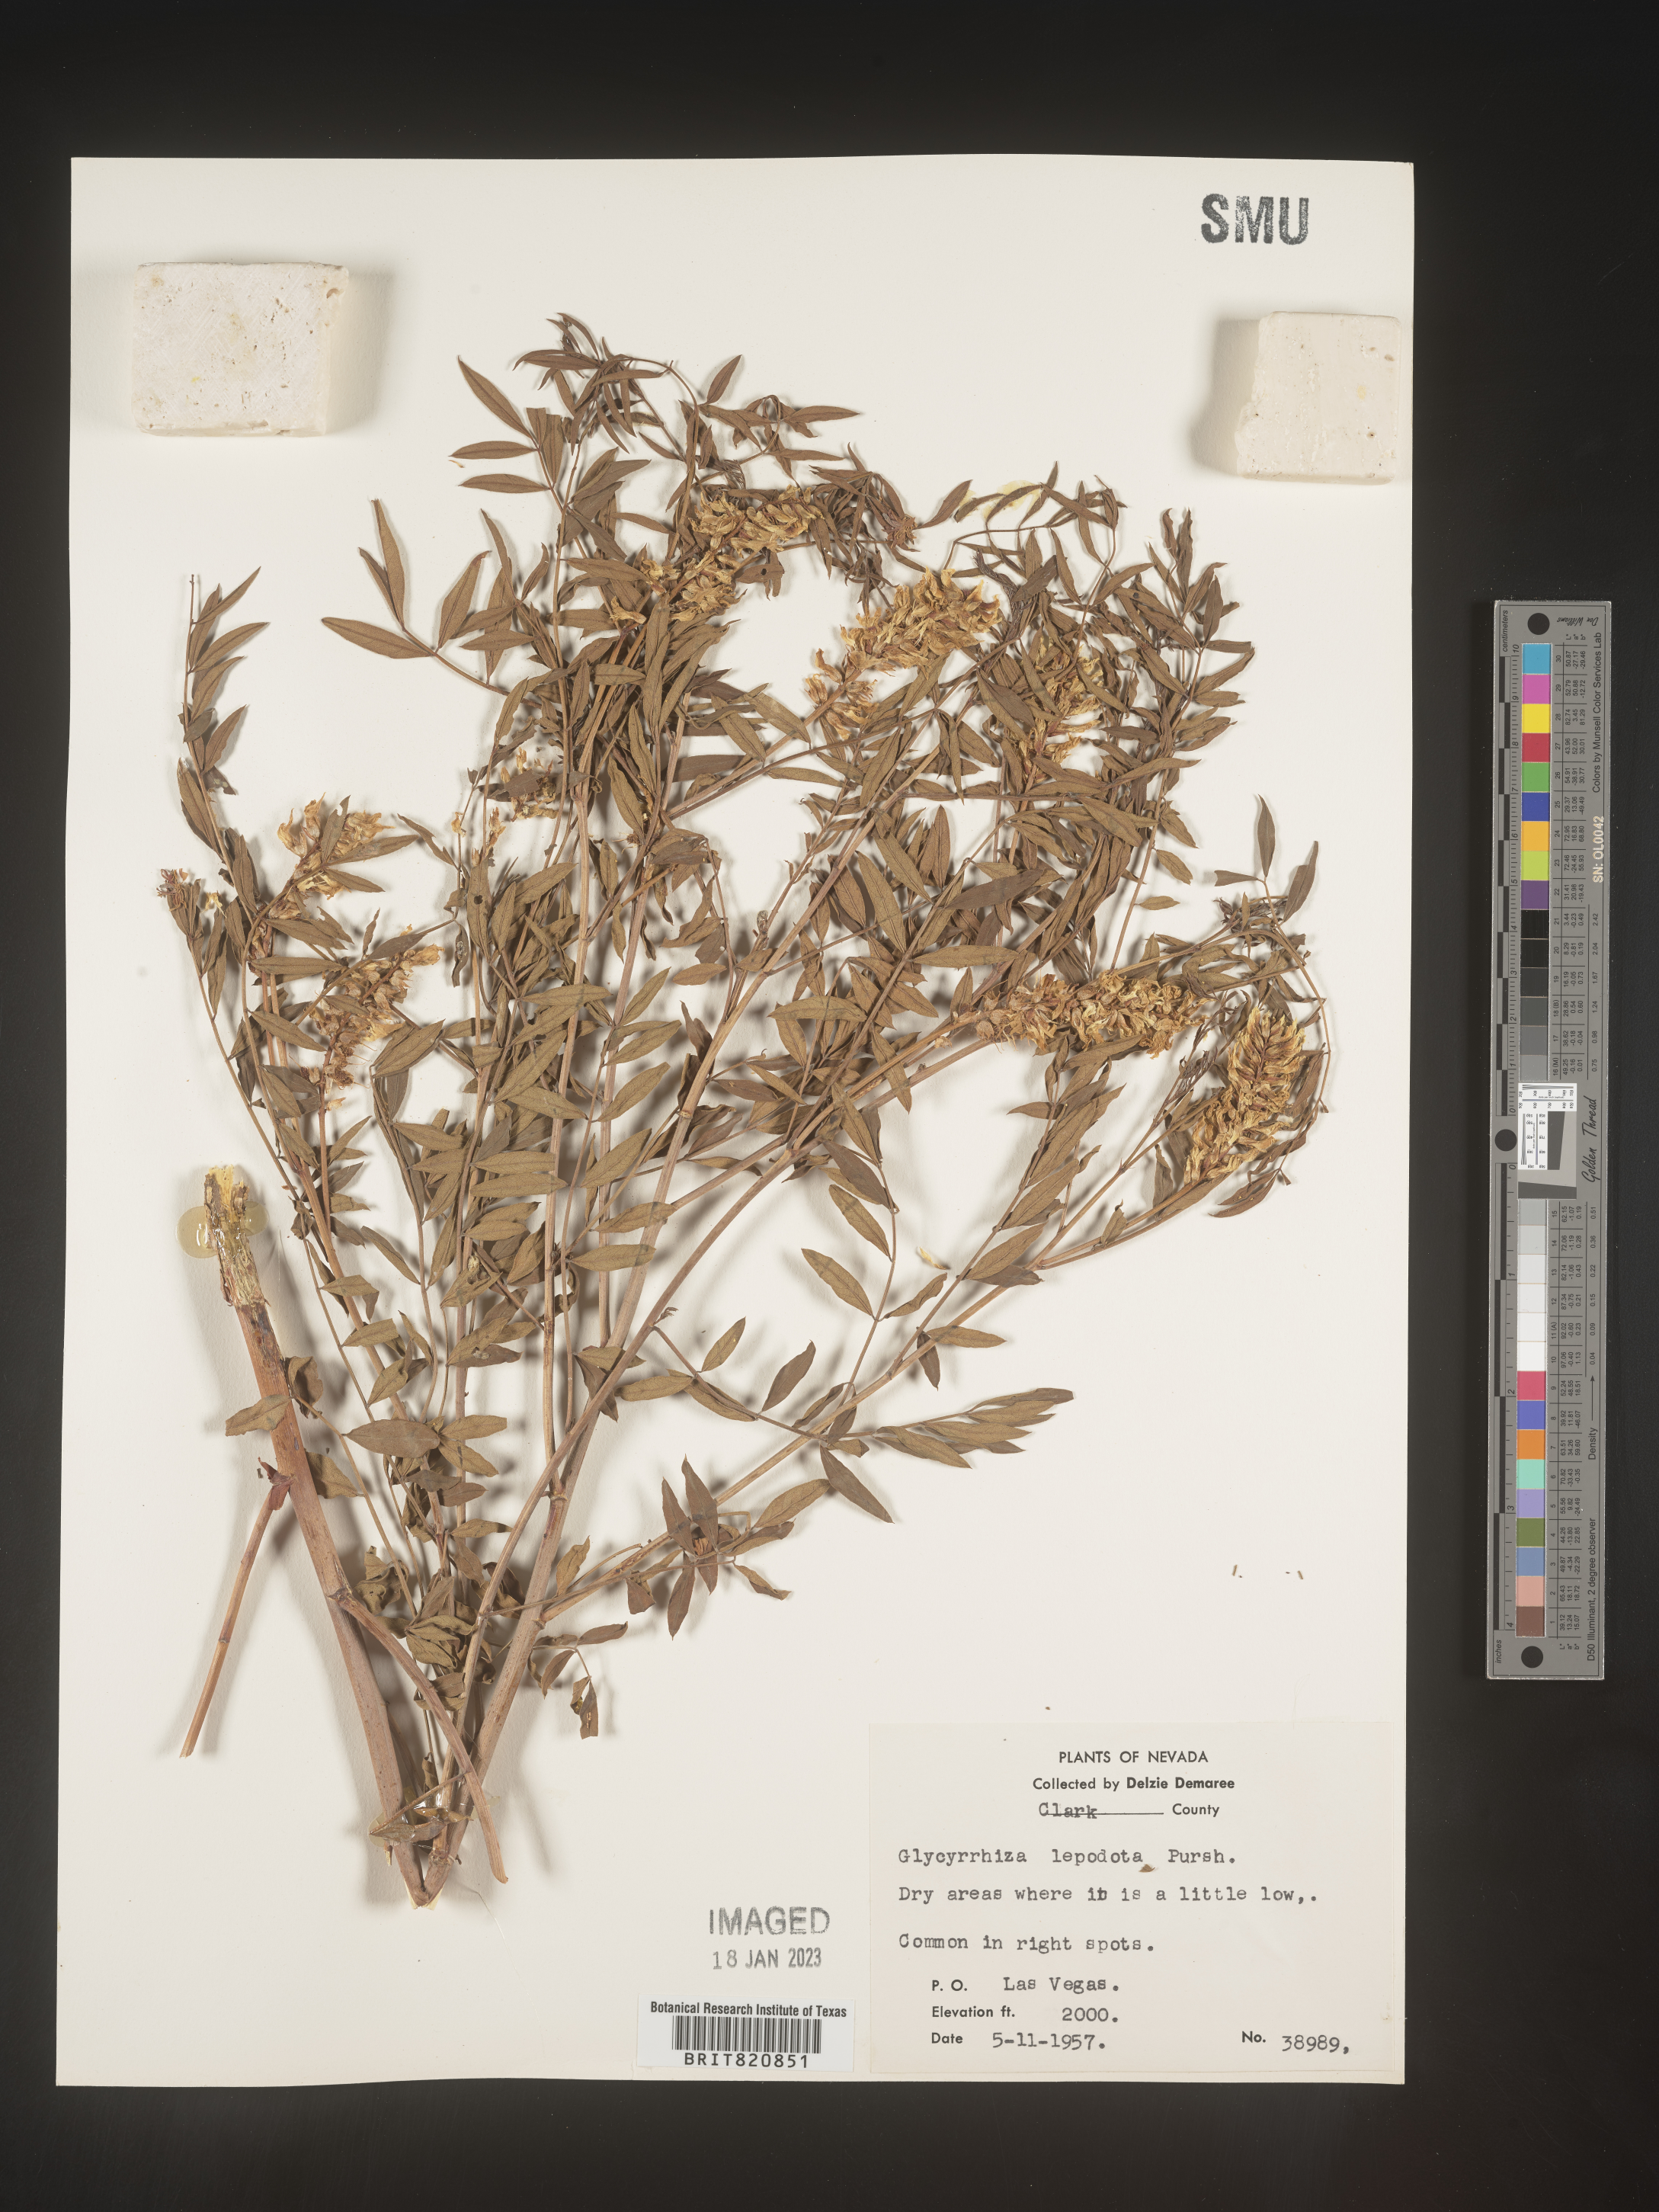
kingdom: Plantae
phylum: Tracheophyta
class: Magnoliopsida
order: Fabales
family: Fabaceae
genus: Glycyrrhiza
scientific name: Glycyrrhiza lepidota
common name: American liquorice
